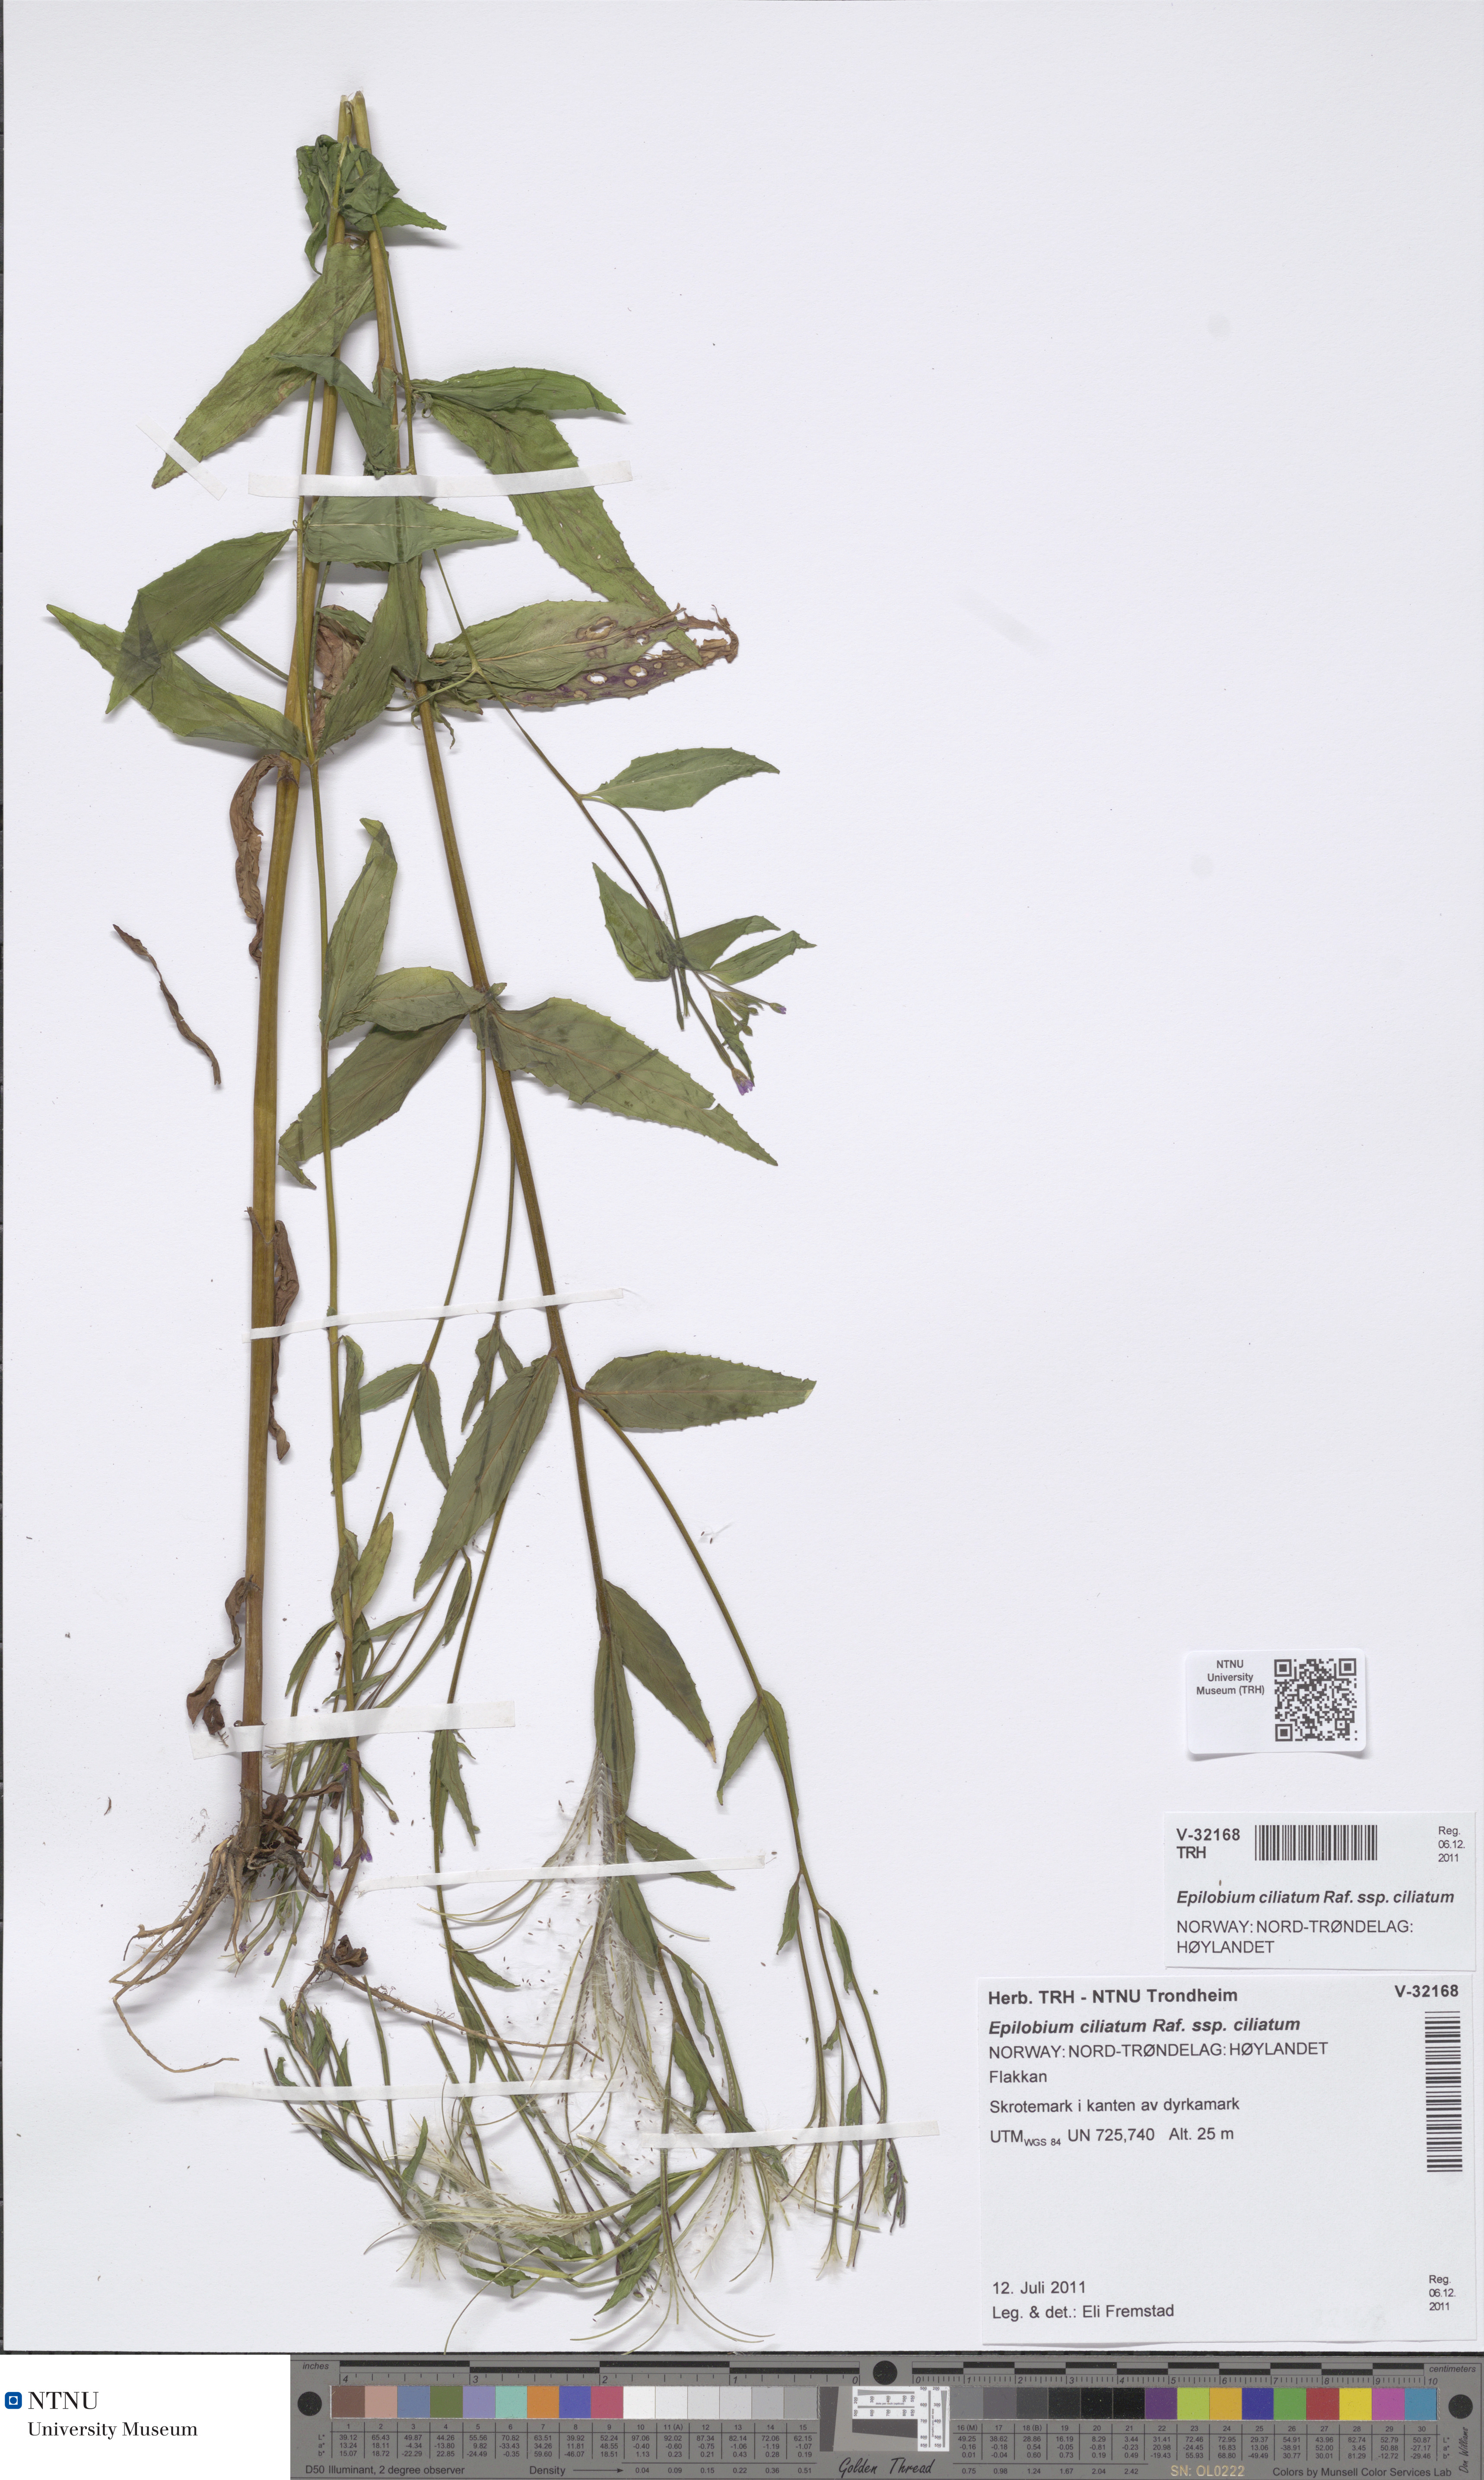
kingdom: Plantae
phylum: Tracheophyta
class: Magnoliopsida
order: Myrtales
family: Onagraceae
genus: Epilobium
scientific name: Epilobium ciliatum
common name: American willowherb
